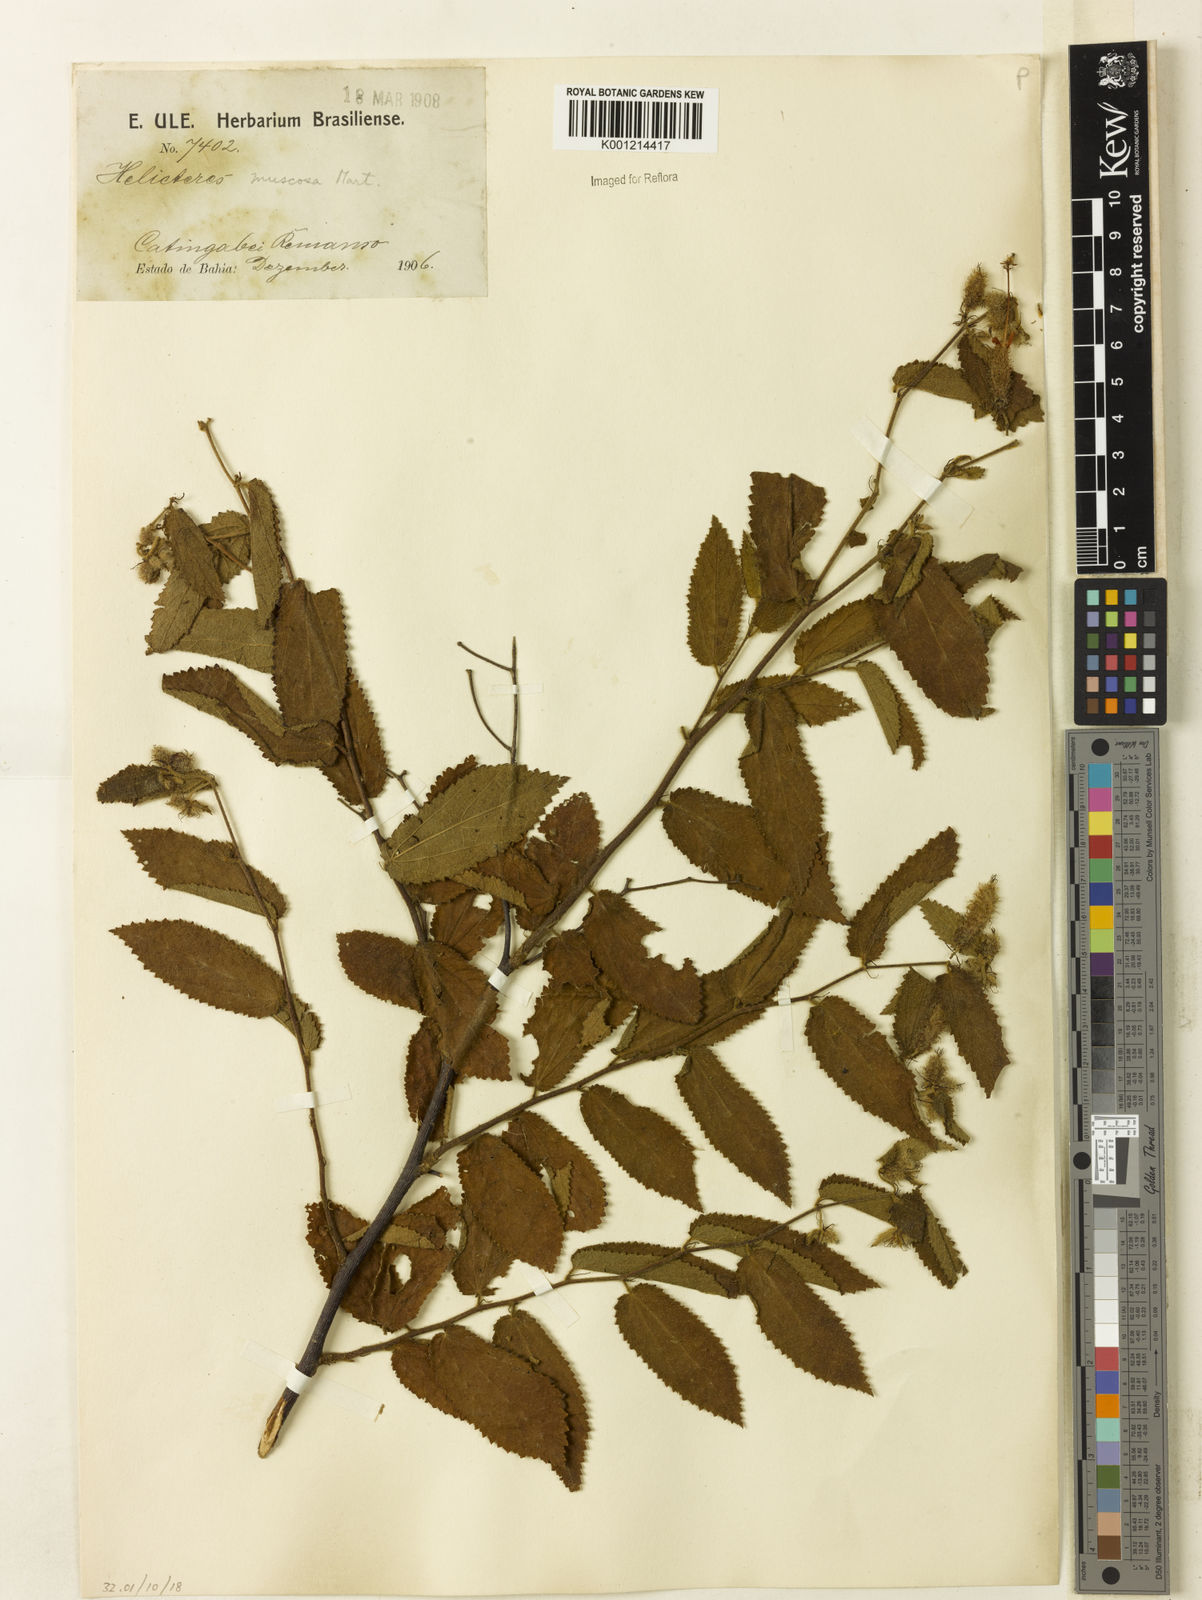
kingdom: Plantae
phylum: Tracheophyta
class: Magnoliopsida
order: Malvales
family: Malvaceae
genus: Helicteres
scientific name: Helicteres muscosa
